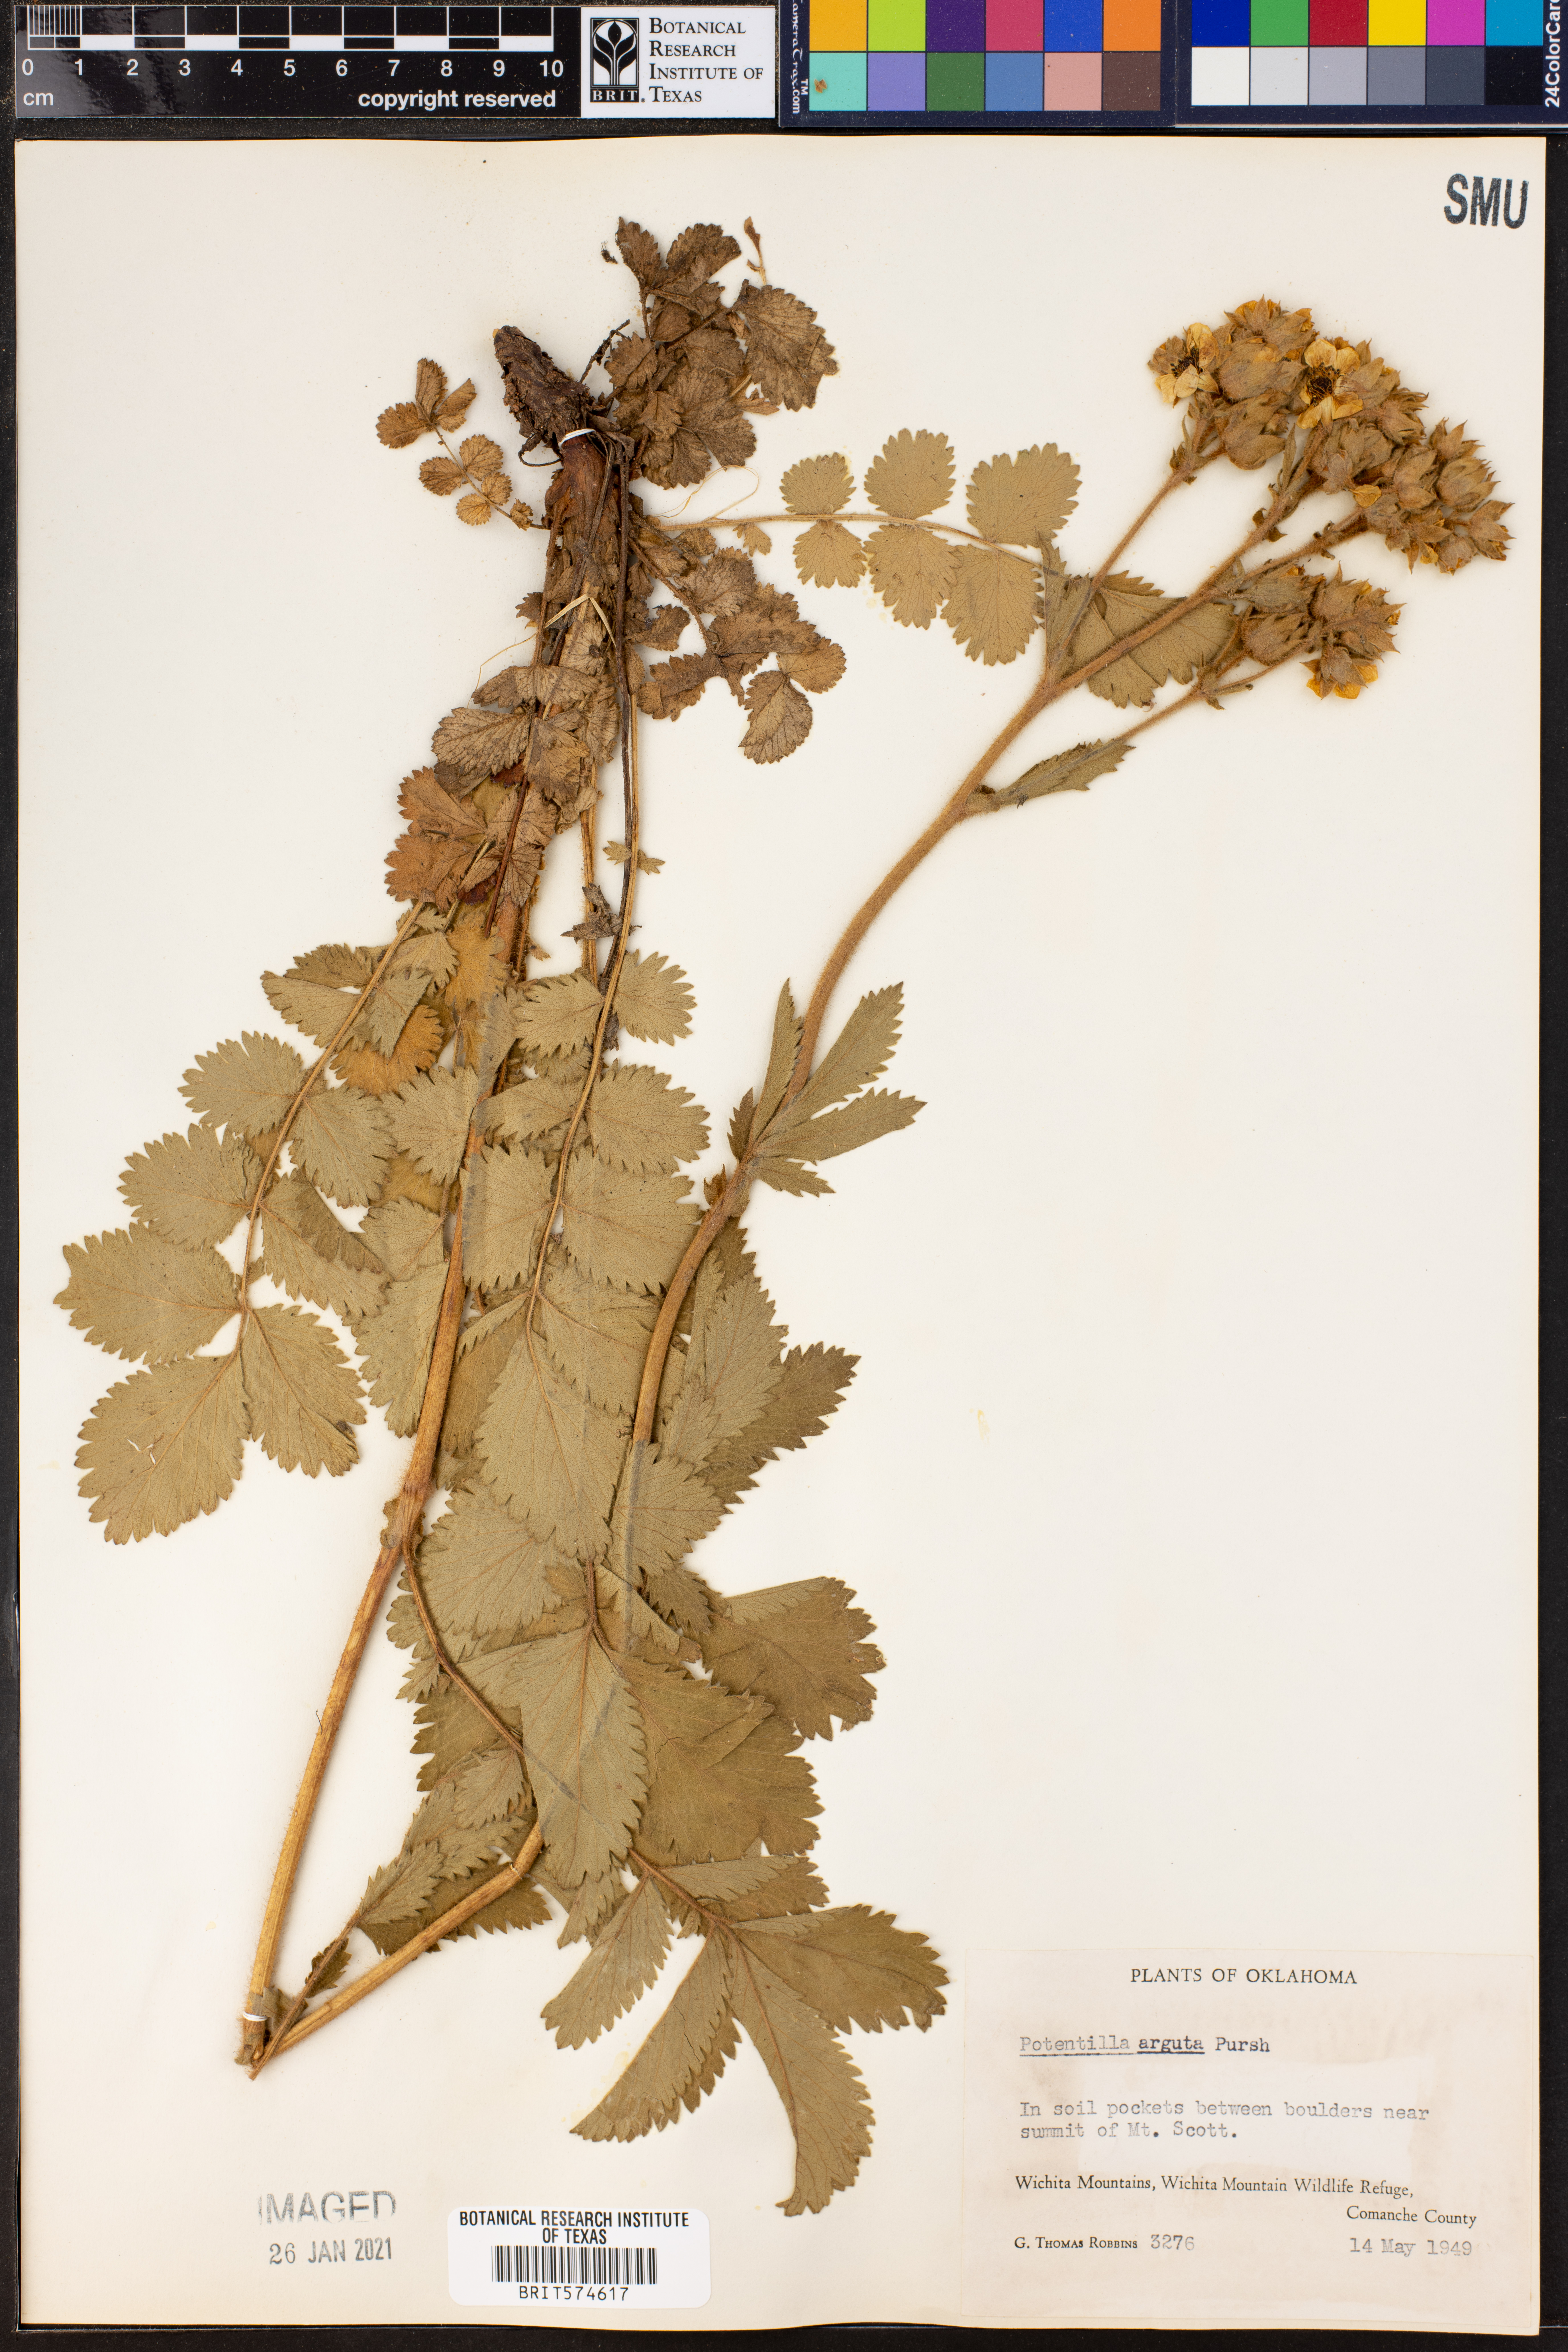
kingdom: Plantae
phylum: Tracheophyta
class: Magnoliopsida
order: Rosales
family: Rosaceae
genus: Drymocallis
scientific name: Drymocallis arguta
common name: Tall cinquefoil
